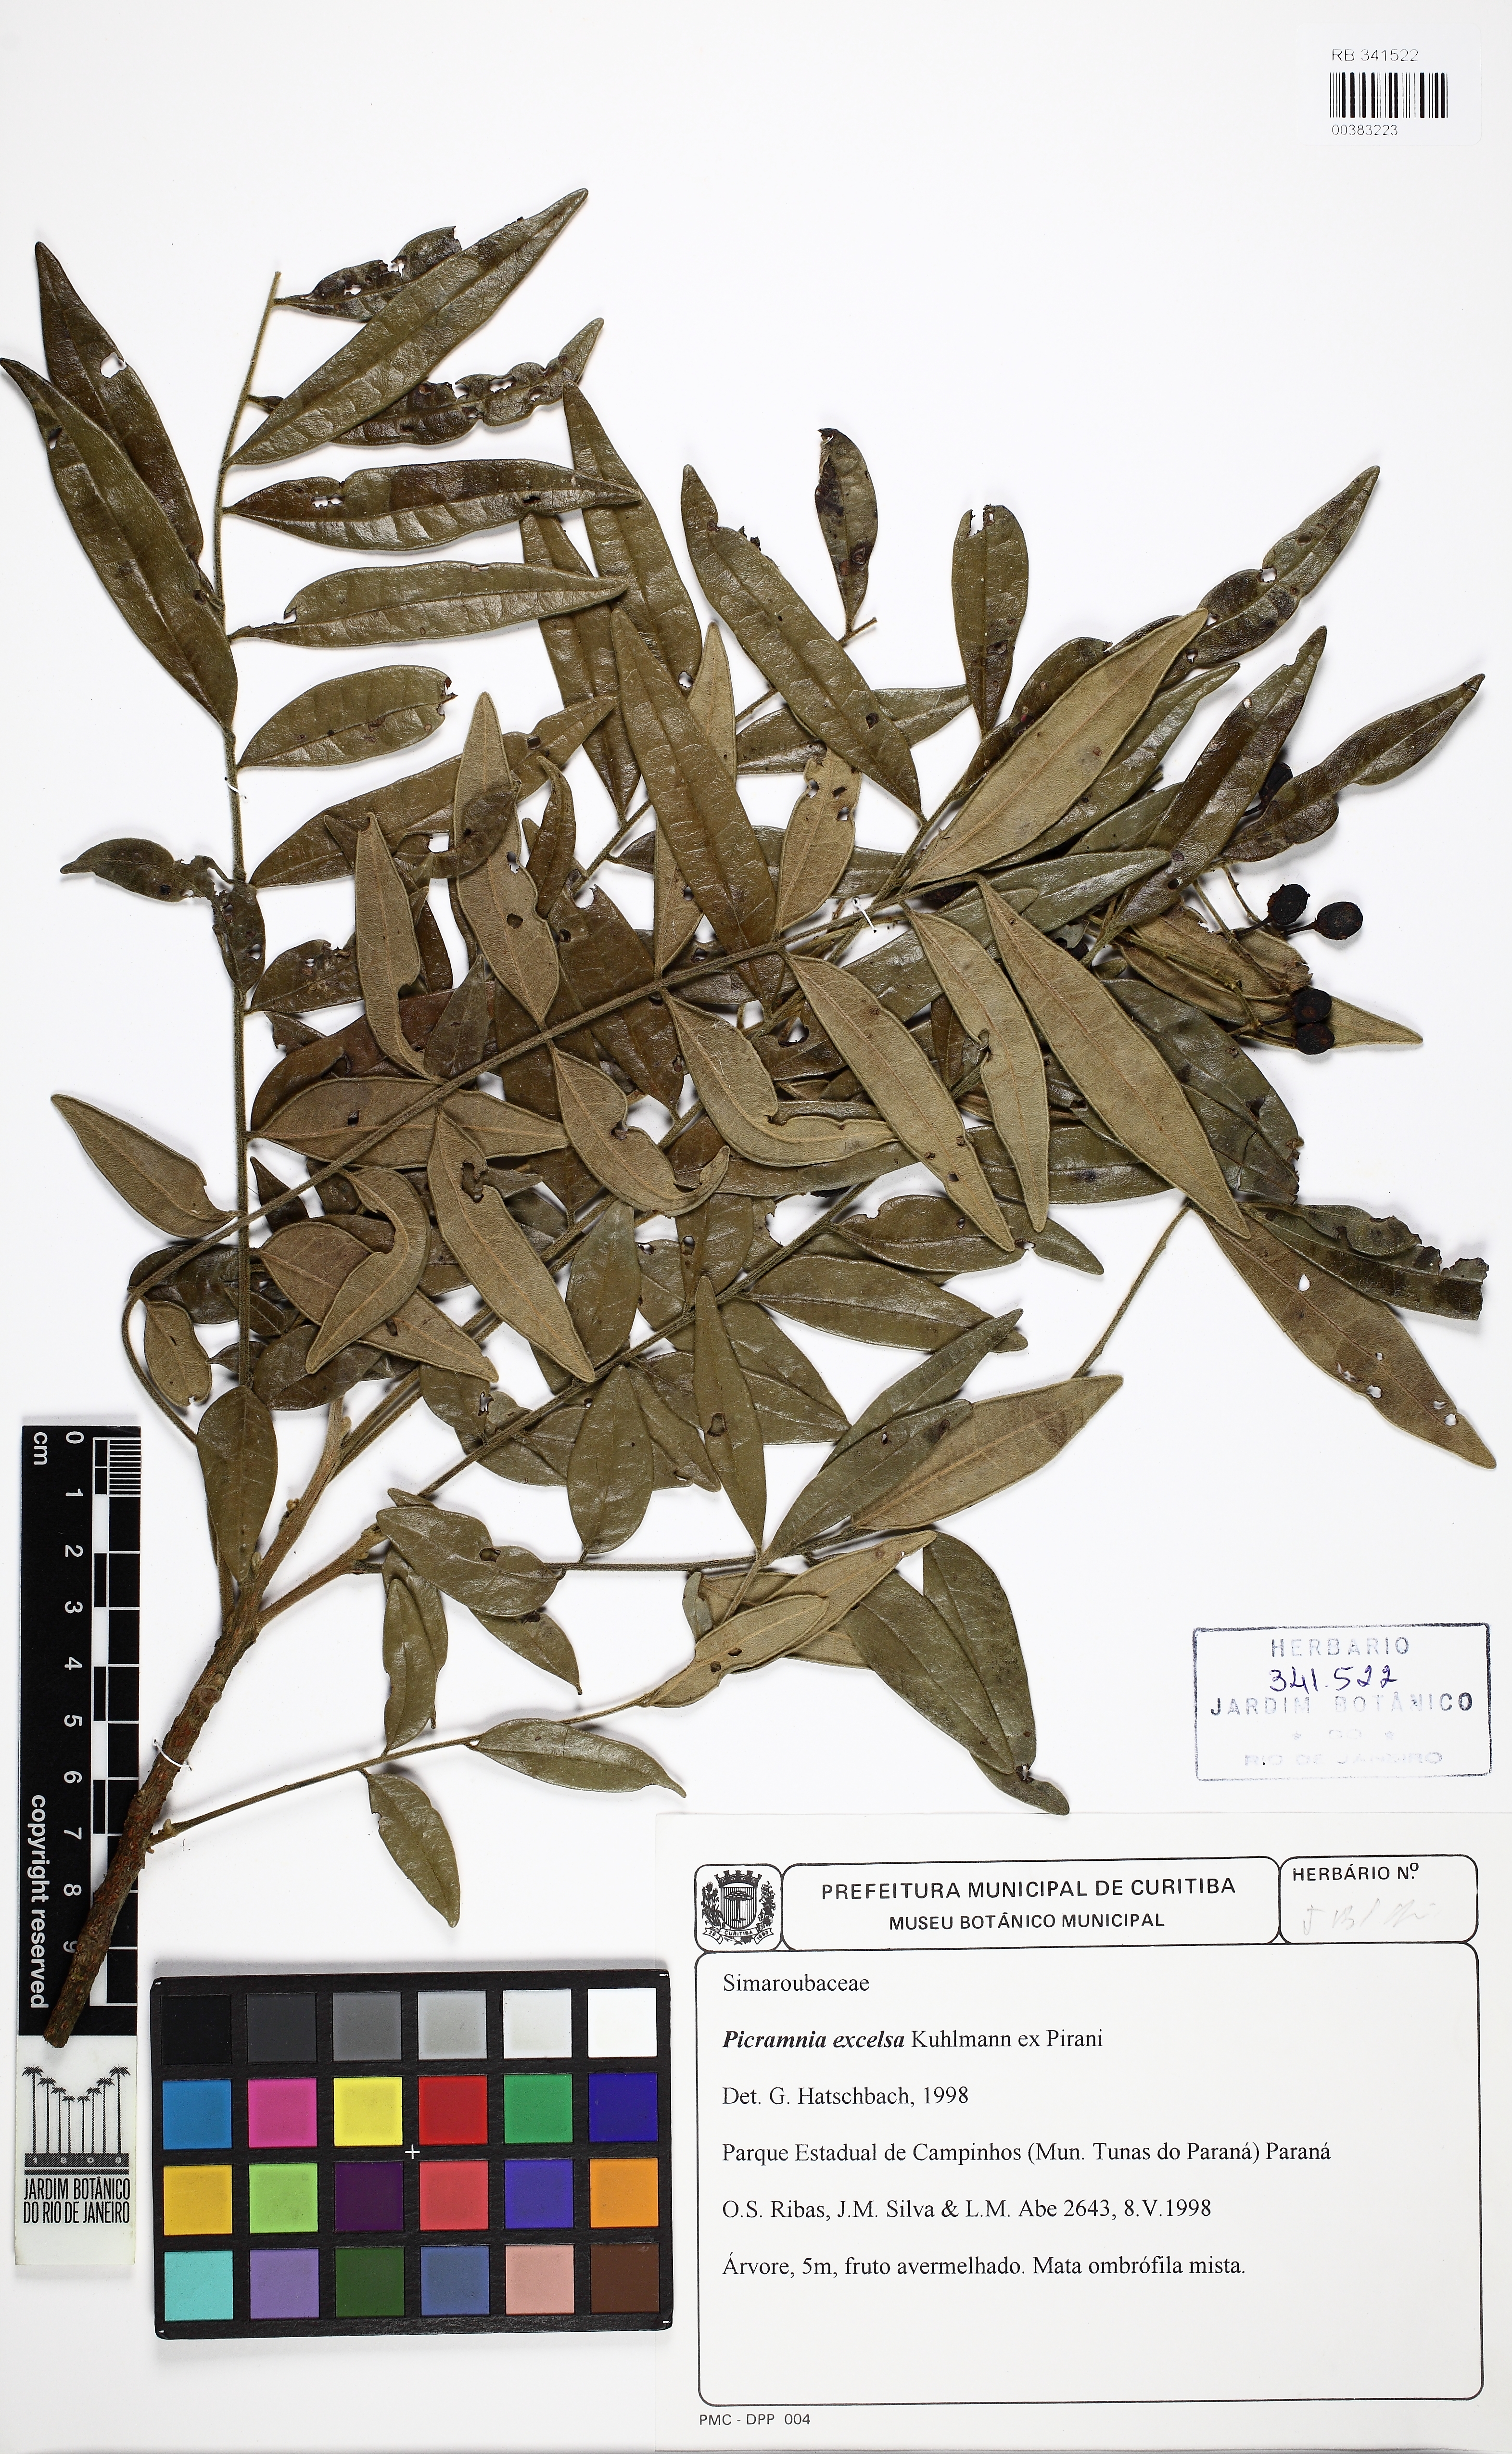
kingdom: Plantae
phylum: Tracheophyta
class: Magnoliopsida
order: Picramniales
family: Picramniaceae
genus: Picramnia
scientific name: Picramnia excelsa
